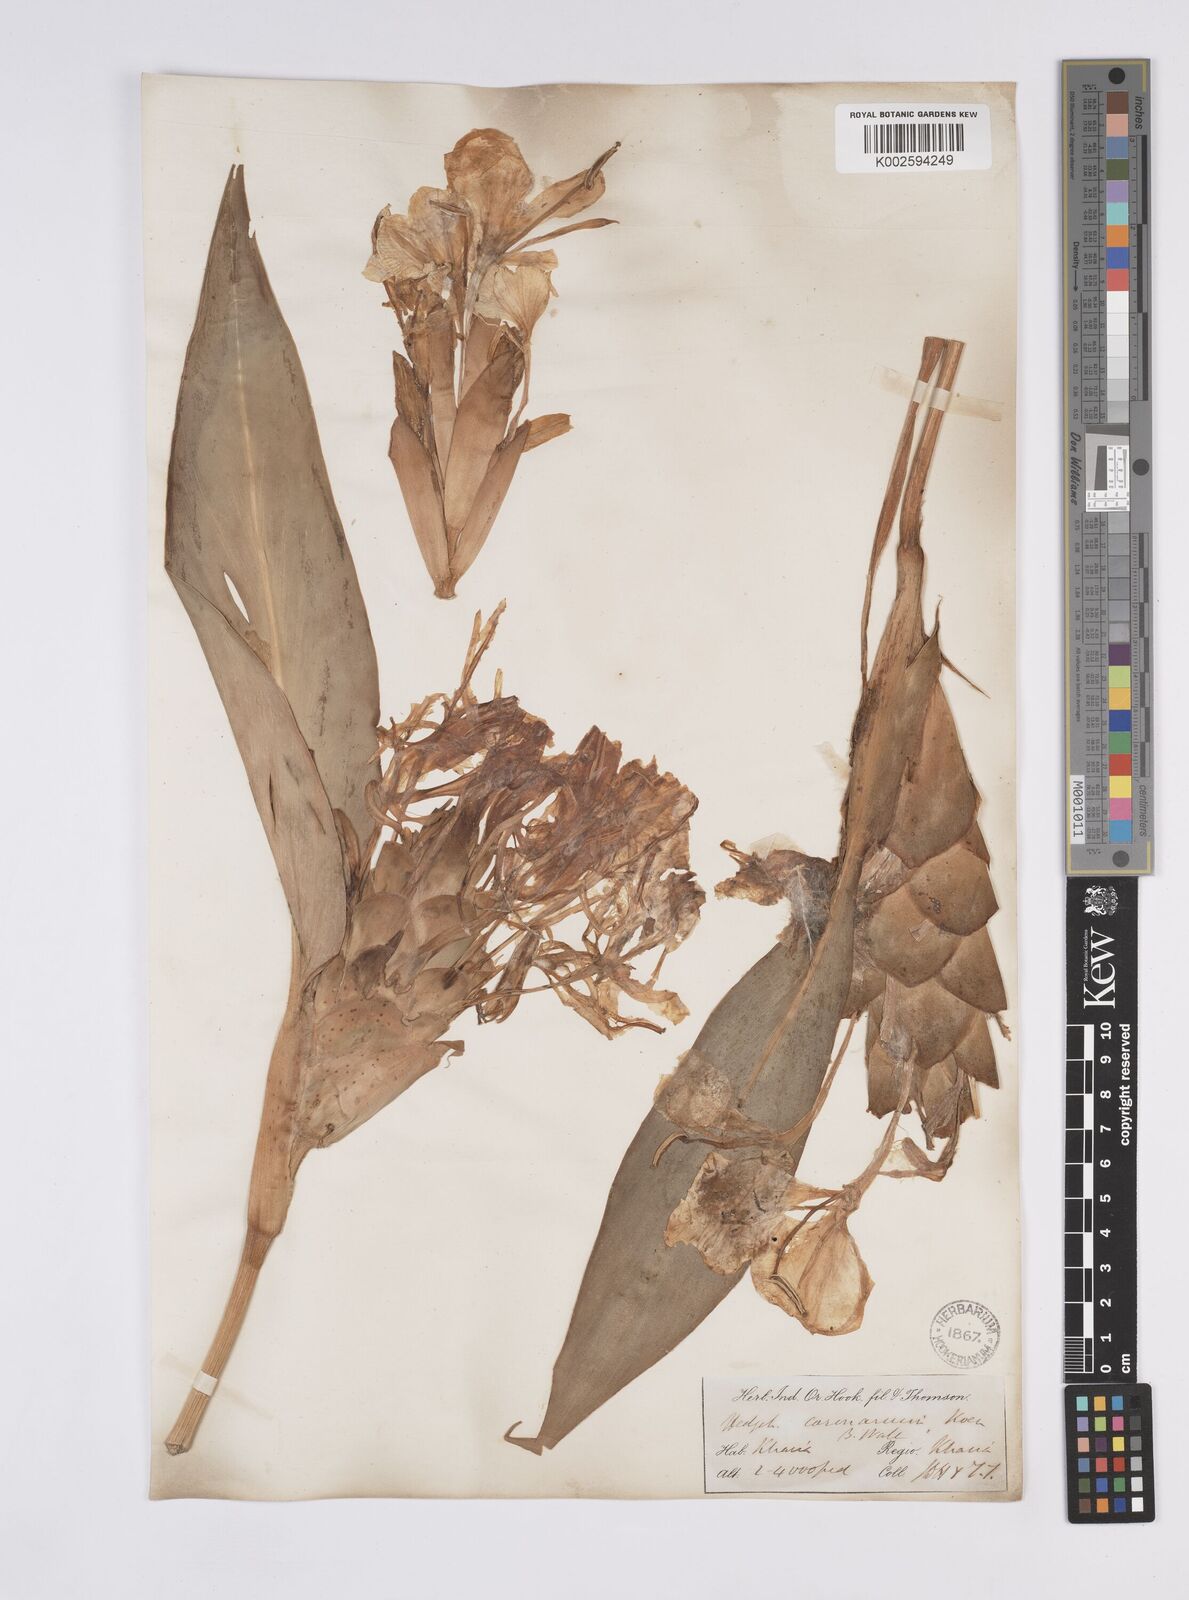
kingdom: Plantae
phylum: Tracheophyta
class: Liliopsida
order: Zingiberales
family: Zingiberaceae
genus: Hedychium
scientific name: Hedychium coronarium
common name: White garland-lily
